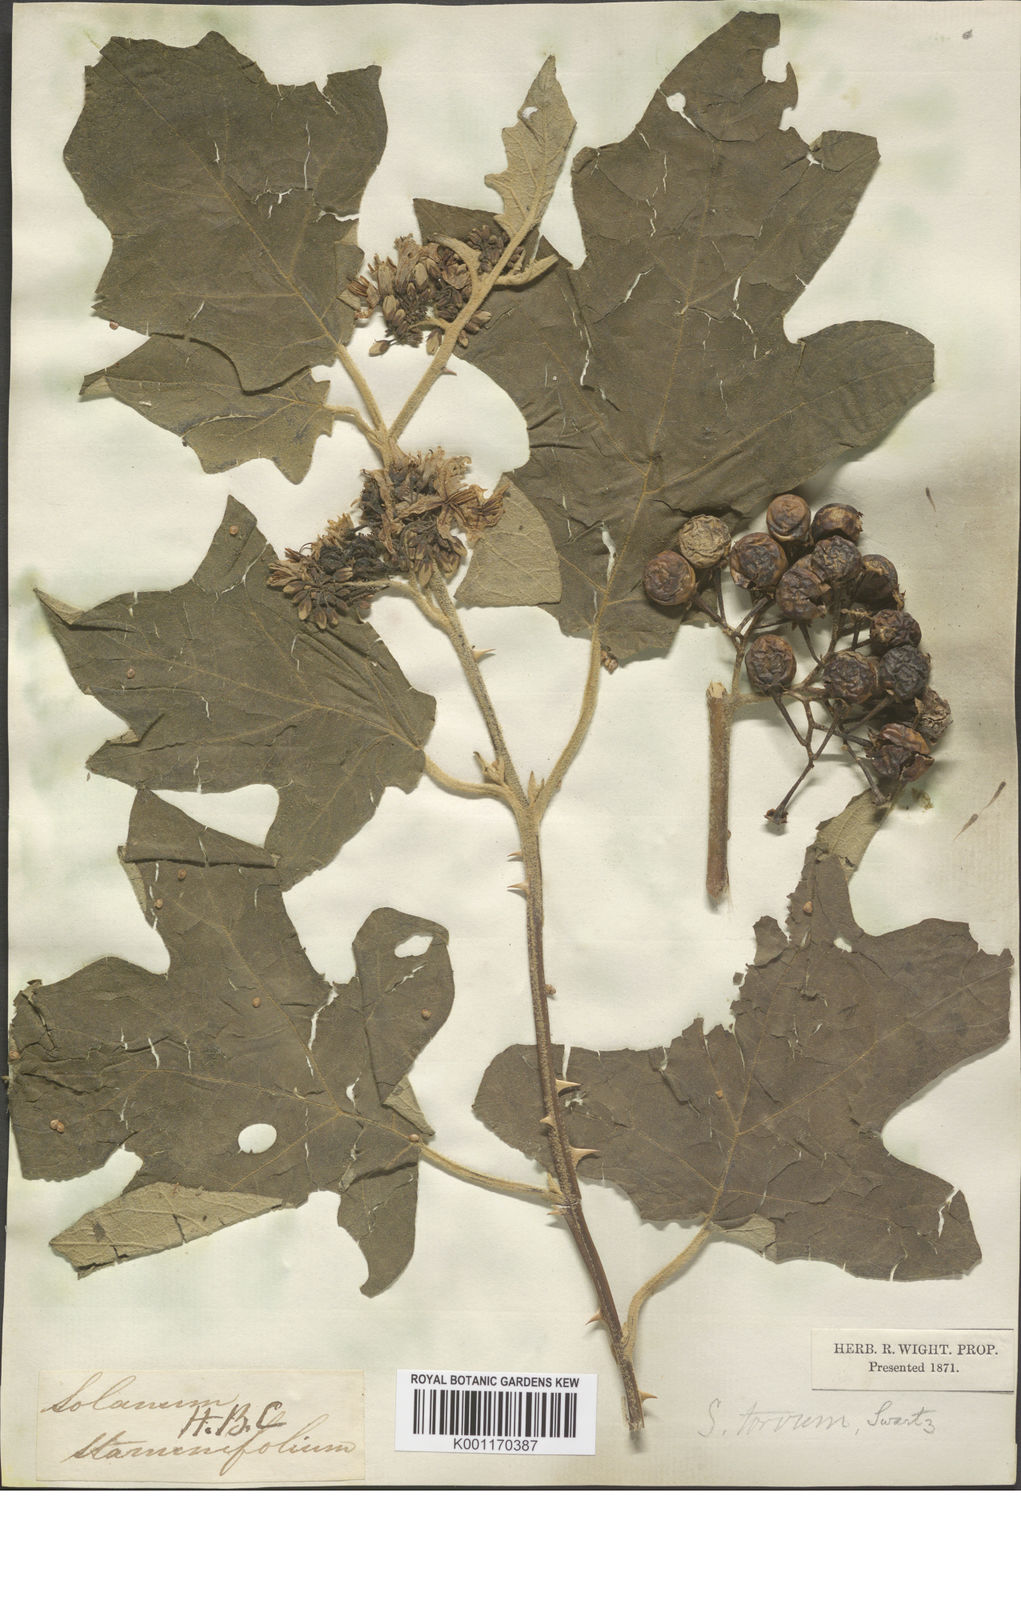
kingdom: Plantae
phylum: Tracheophyta
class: Magnoliopsida
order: Solanales
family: Solanaceae
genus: Solanum
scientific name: Solanum torvum
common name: Turkey berry
